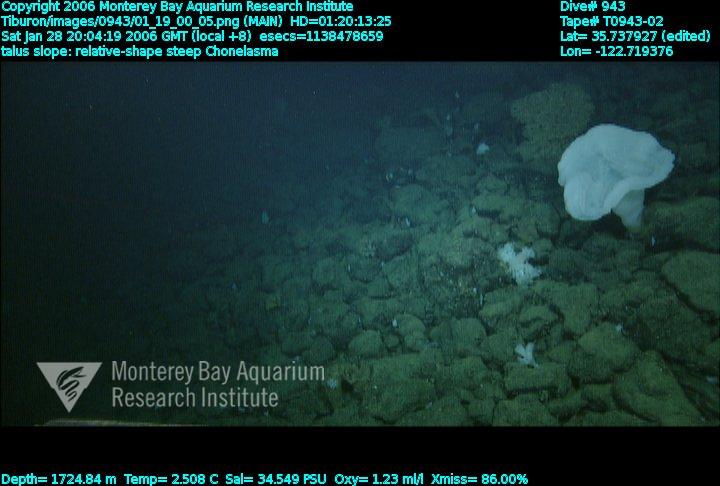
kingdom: Animalia
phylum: Porifera
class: Hexactinellida
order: Sceptrulophora
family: Euretidae
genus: Chonelasma
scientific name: Chonelasma
